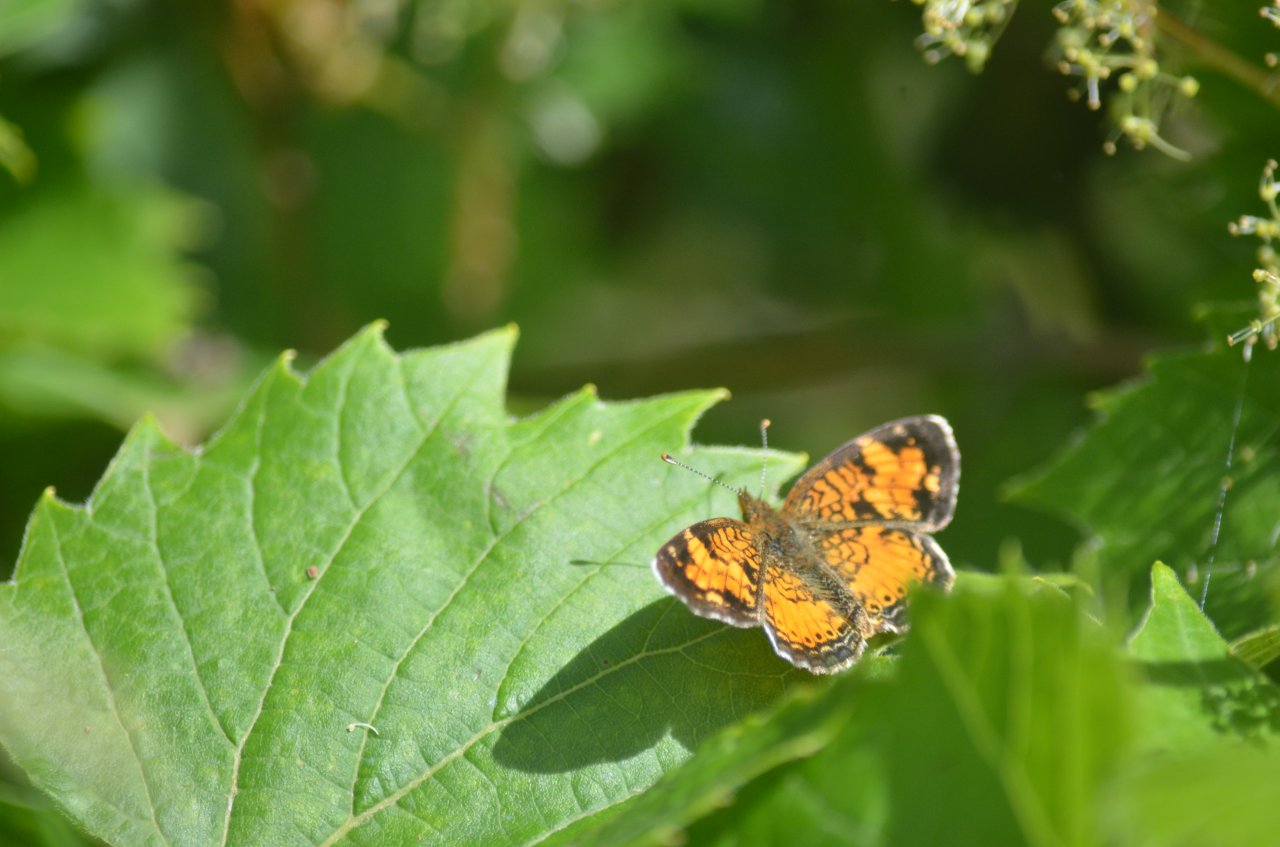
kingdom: Animalia
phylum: Arthropoda
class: Insecta
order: Lepidoptera
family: Nymphalidae
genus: Phyciodes
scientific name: Phyciodes tharos
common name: Northern Crescent
